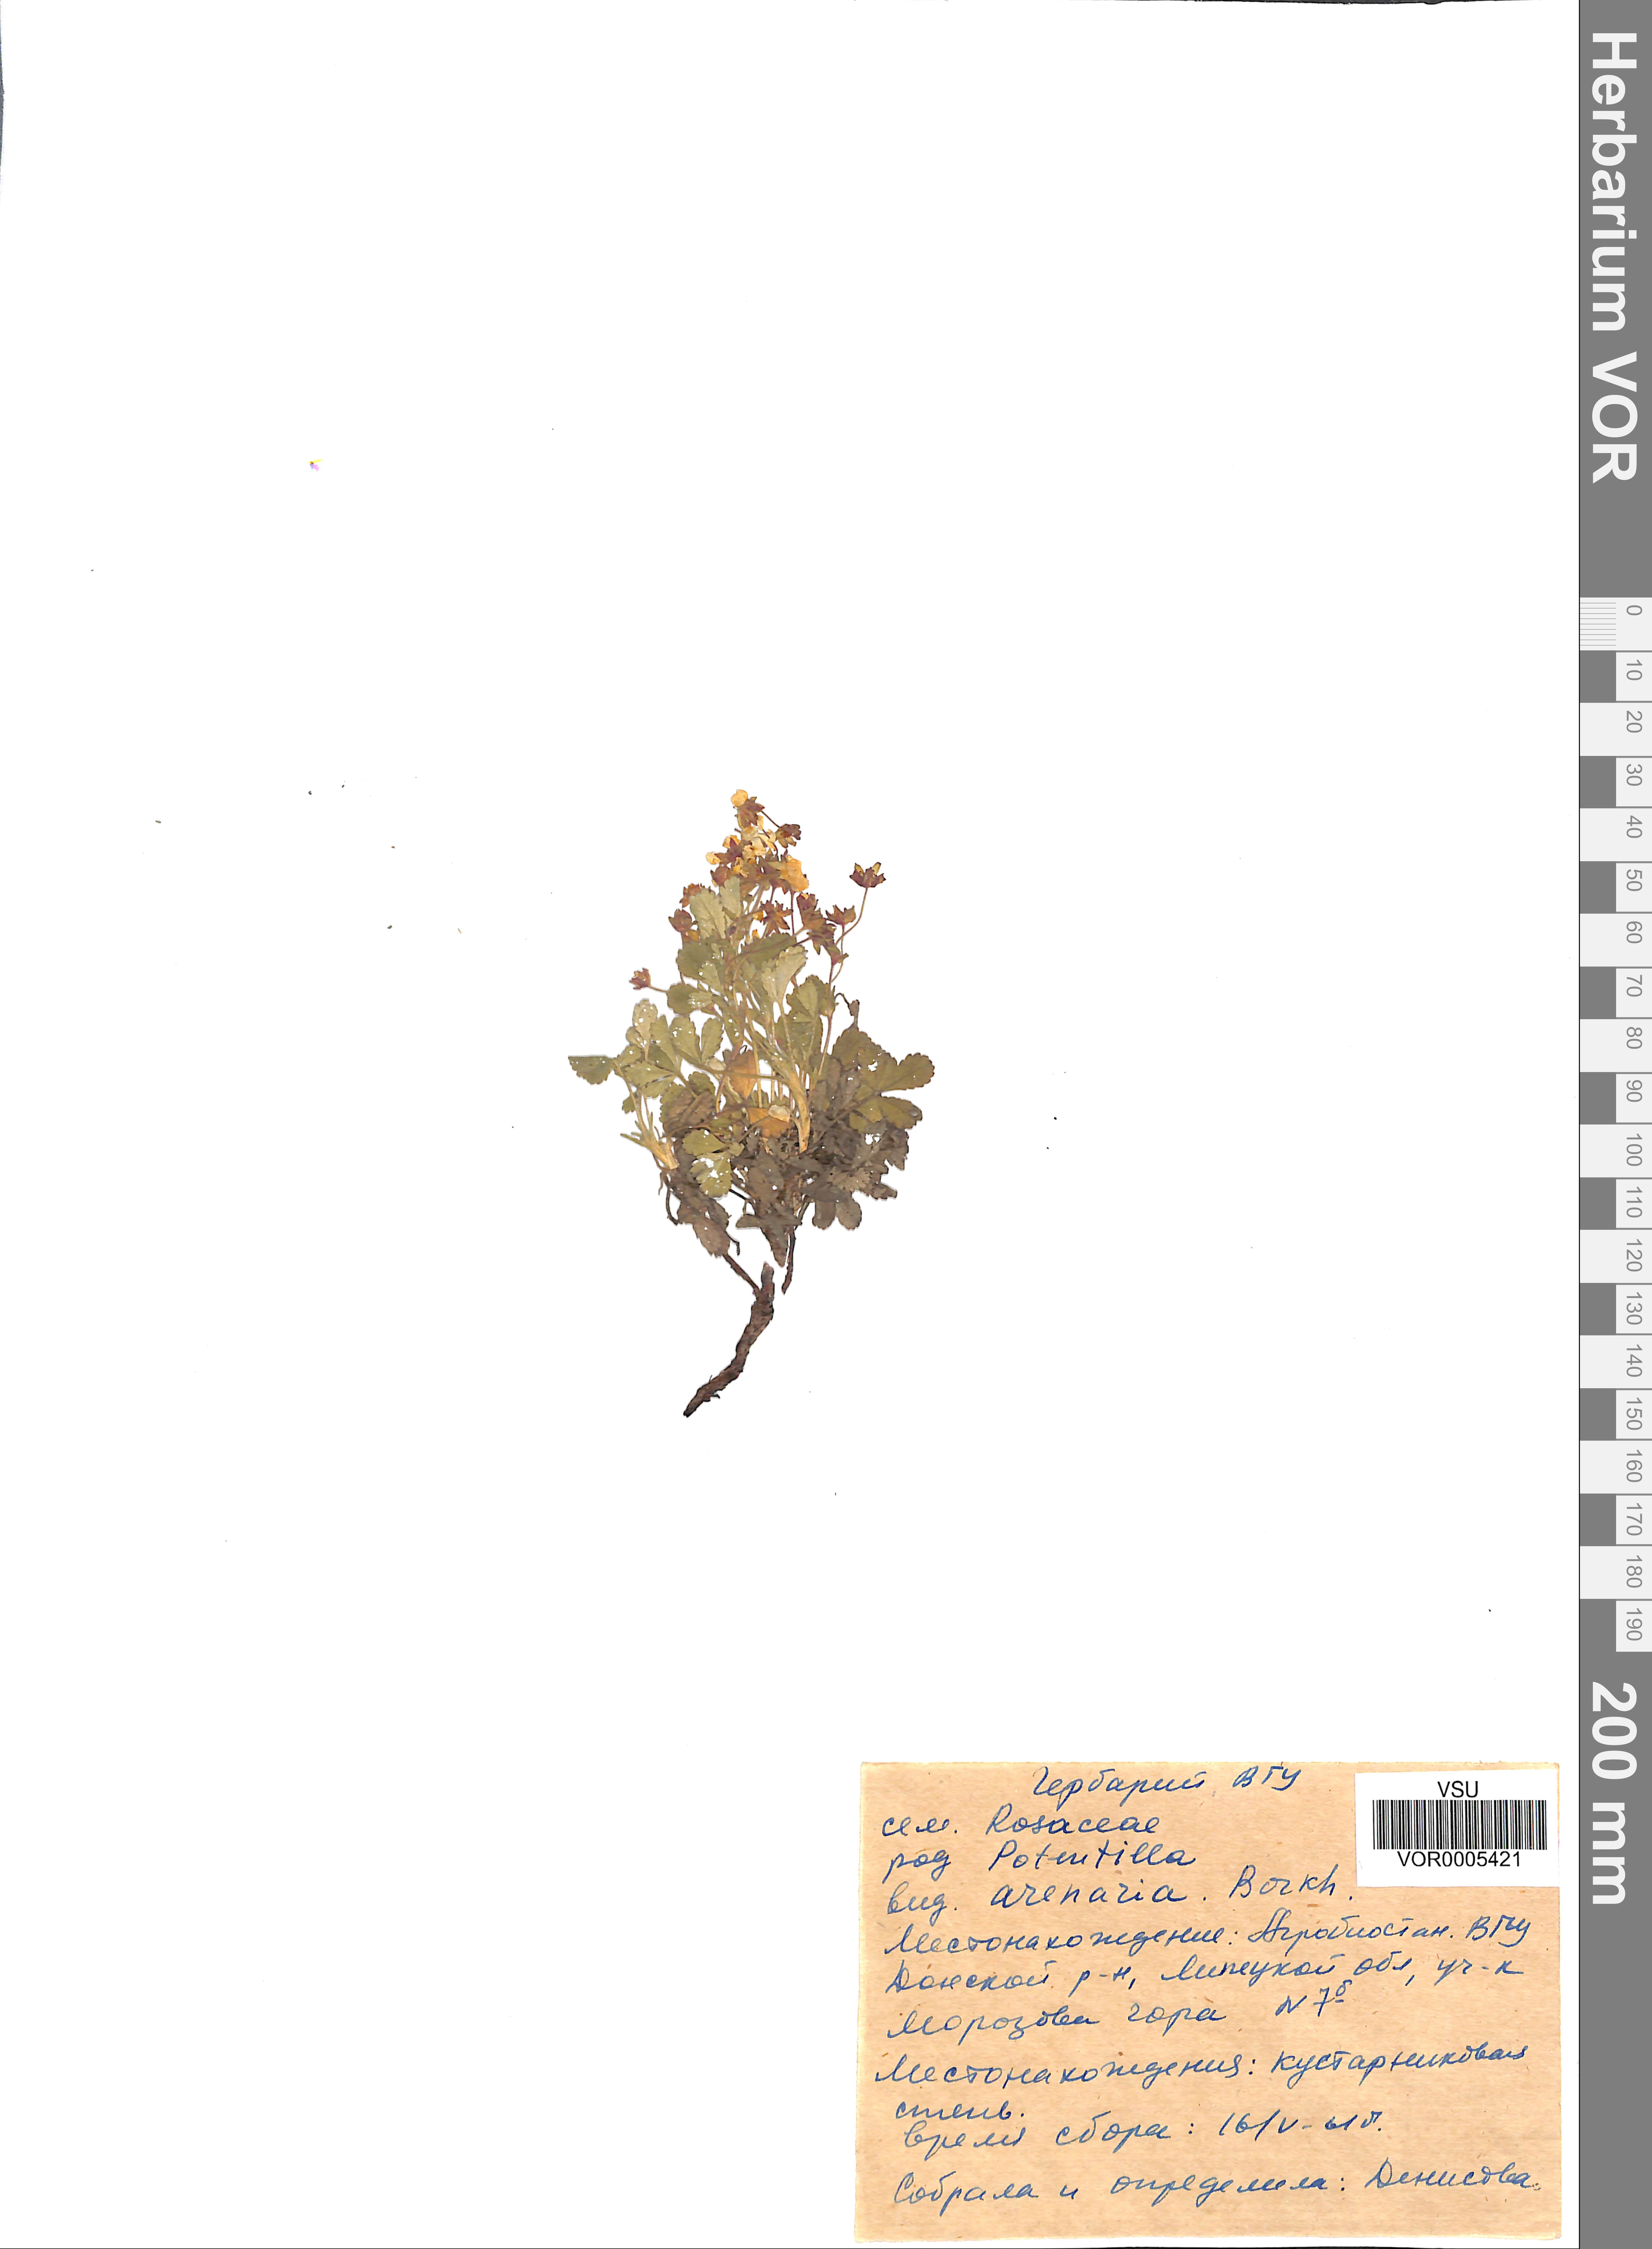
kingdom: Plantae
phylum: Tracheophyta
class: Magnoliopsida
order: Rosales
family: Rosaceae
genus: Potentilla
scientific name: Potentilla cinerea
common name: Ashy cinquefoil
